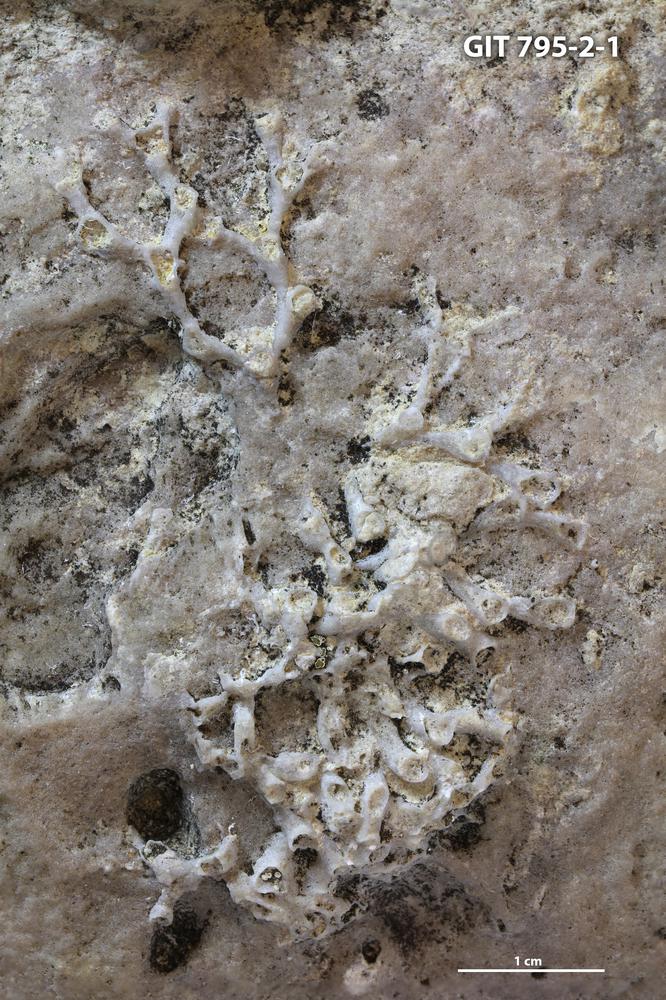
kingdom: Animalia
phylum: Cnidaria
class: Anthozoa
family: Auloporidae
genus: Aulopora
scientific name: Aulopora
